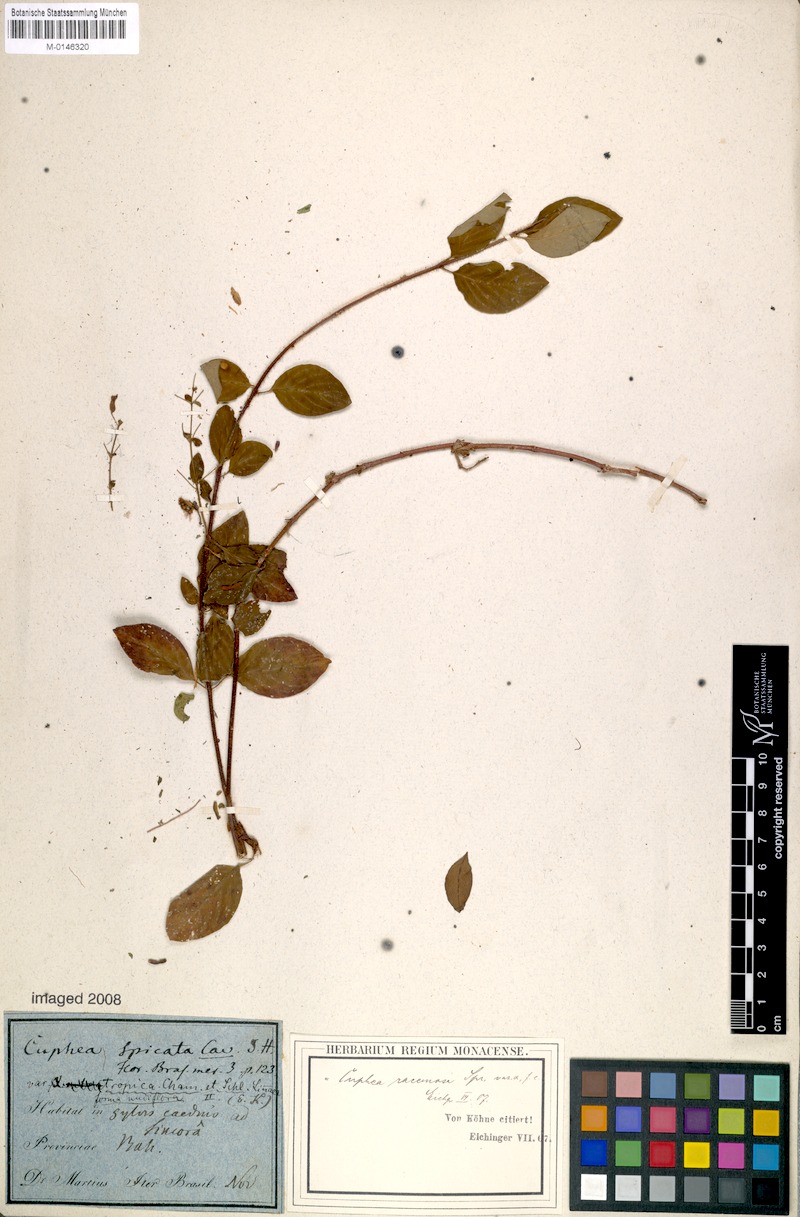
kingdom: Plantae
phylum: Tracheophyta
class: Magnoliopsida
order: Myrtales
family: Lythraceae
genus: Cuphea
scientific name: Cuphea racemosa
